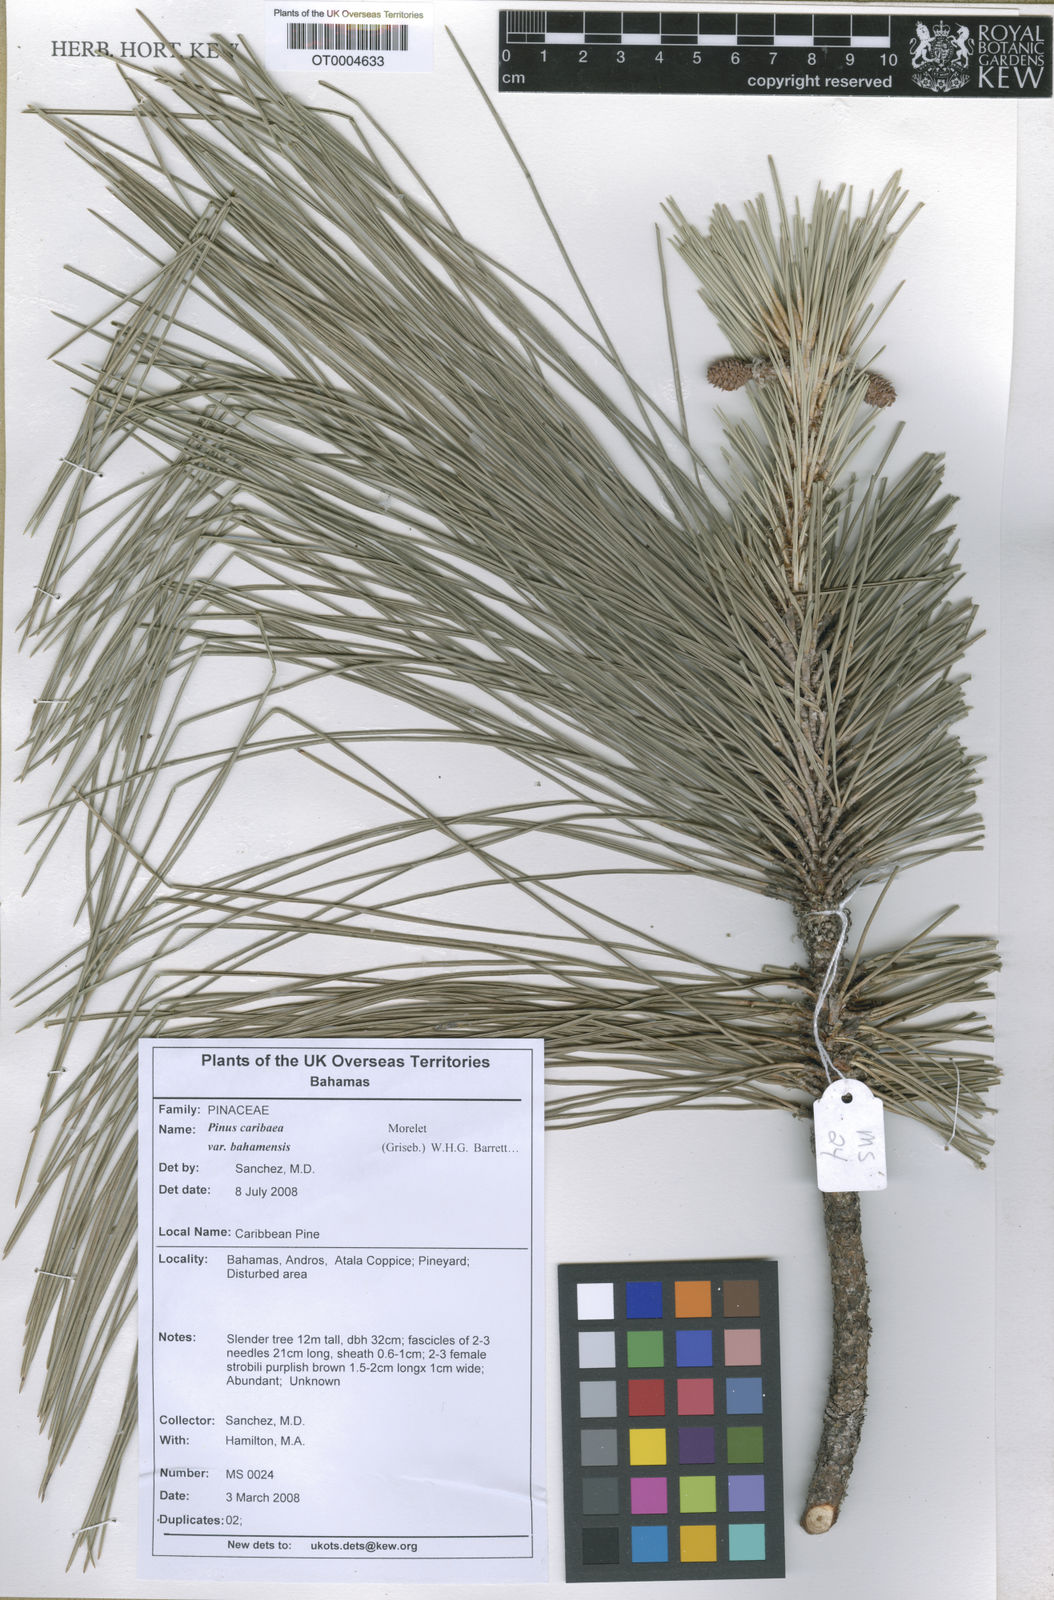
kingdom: Plantae
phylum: Tracheophyta
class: Pinopsida
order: Pinales
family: Pinaceae
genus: Pinus
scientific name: Pinus caribaea
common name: Caribbean pine
